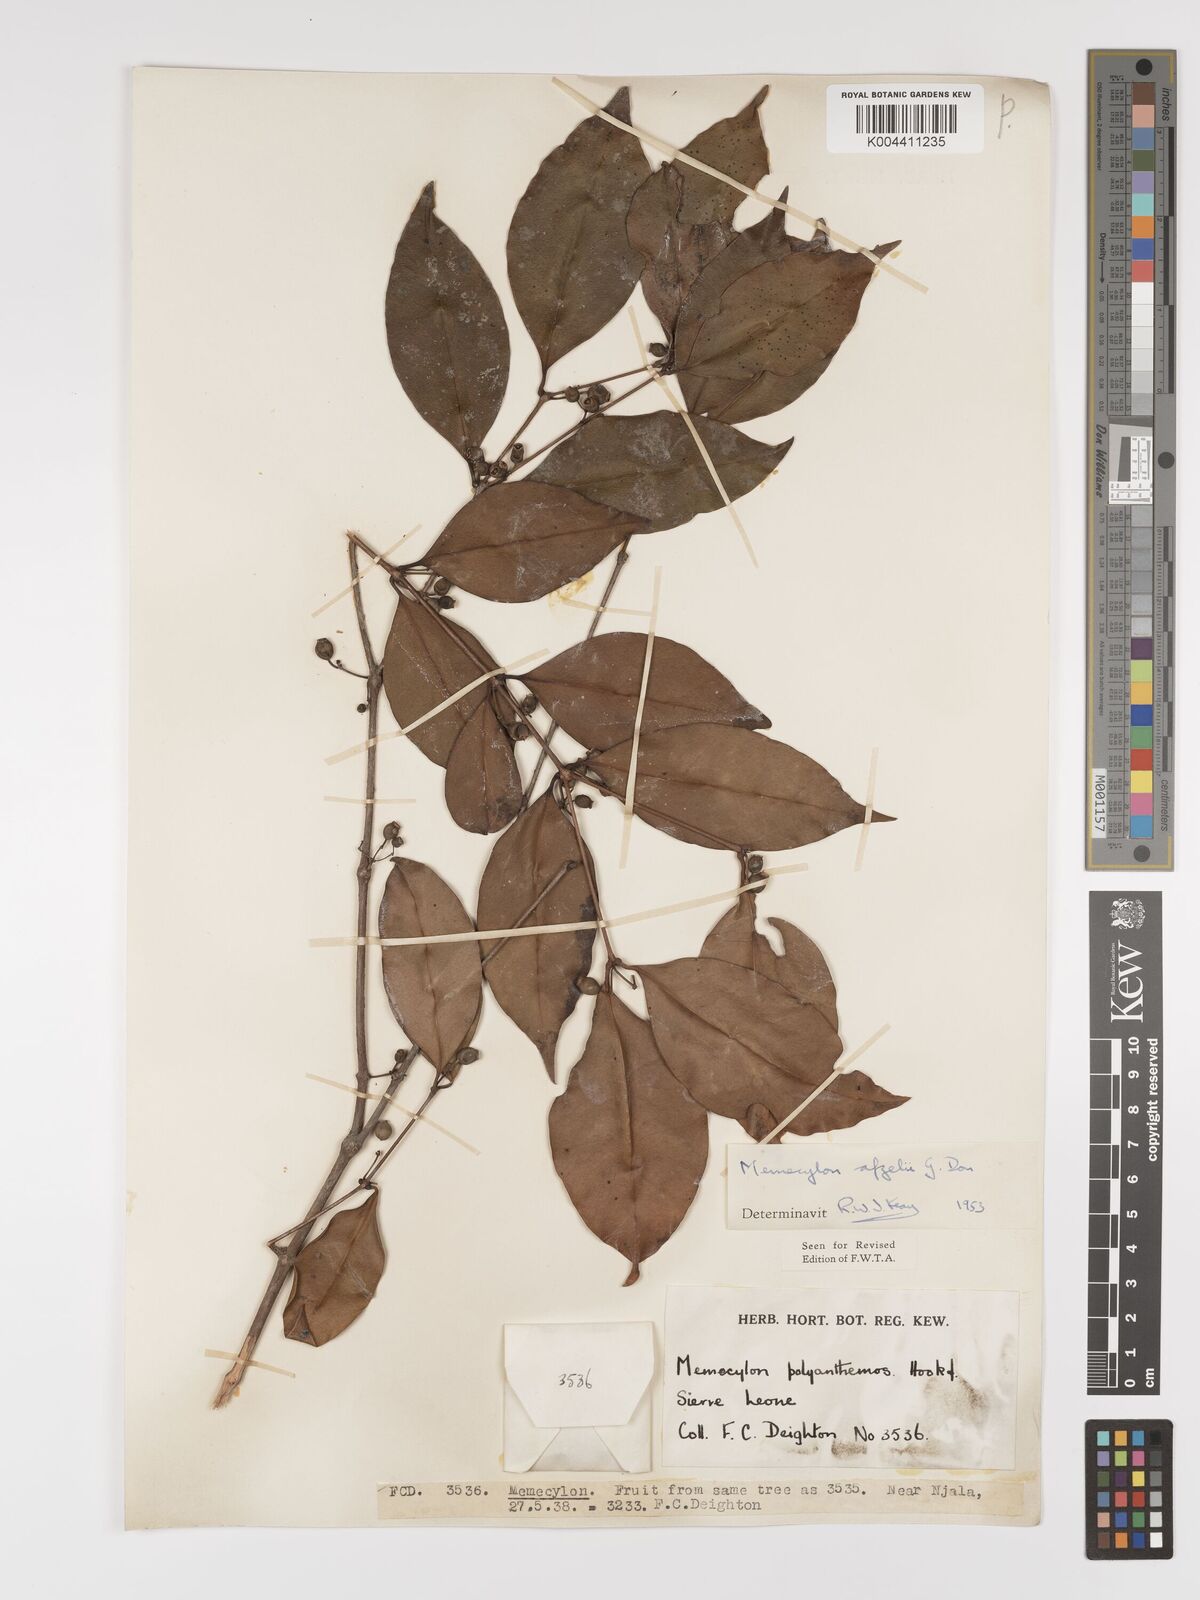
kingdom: Plantae
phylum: Tracheophyta
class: Magnoliopsida
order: Myrtales
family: Melastomataceae
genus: Memecylon
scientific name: Memecylon afzelii
